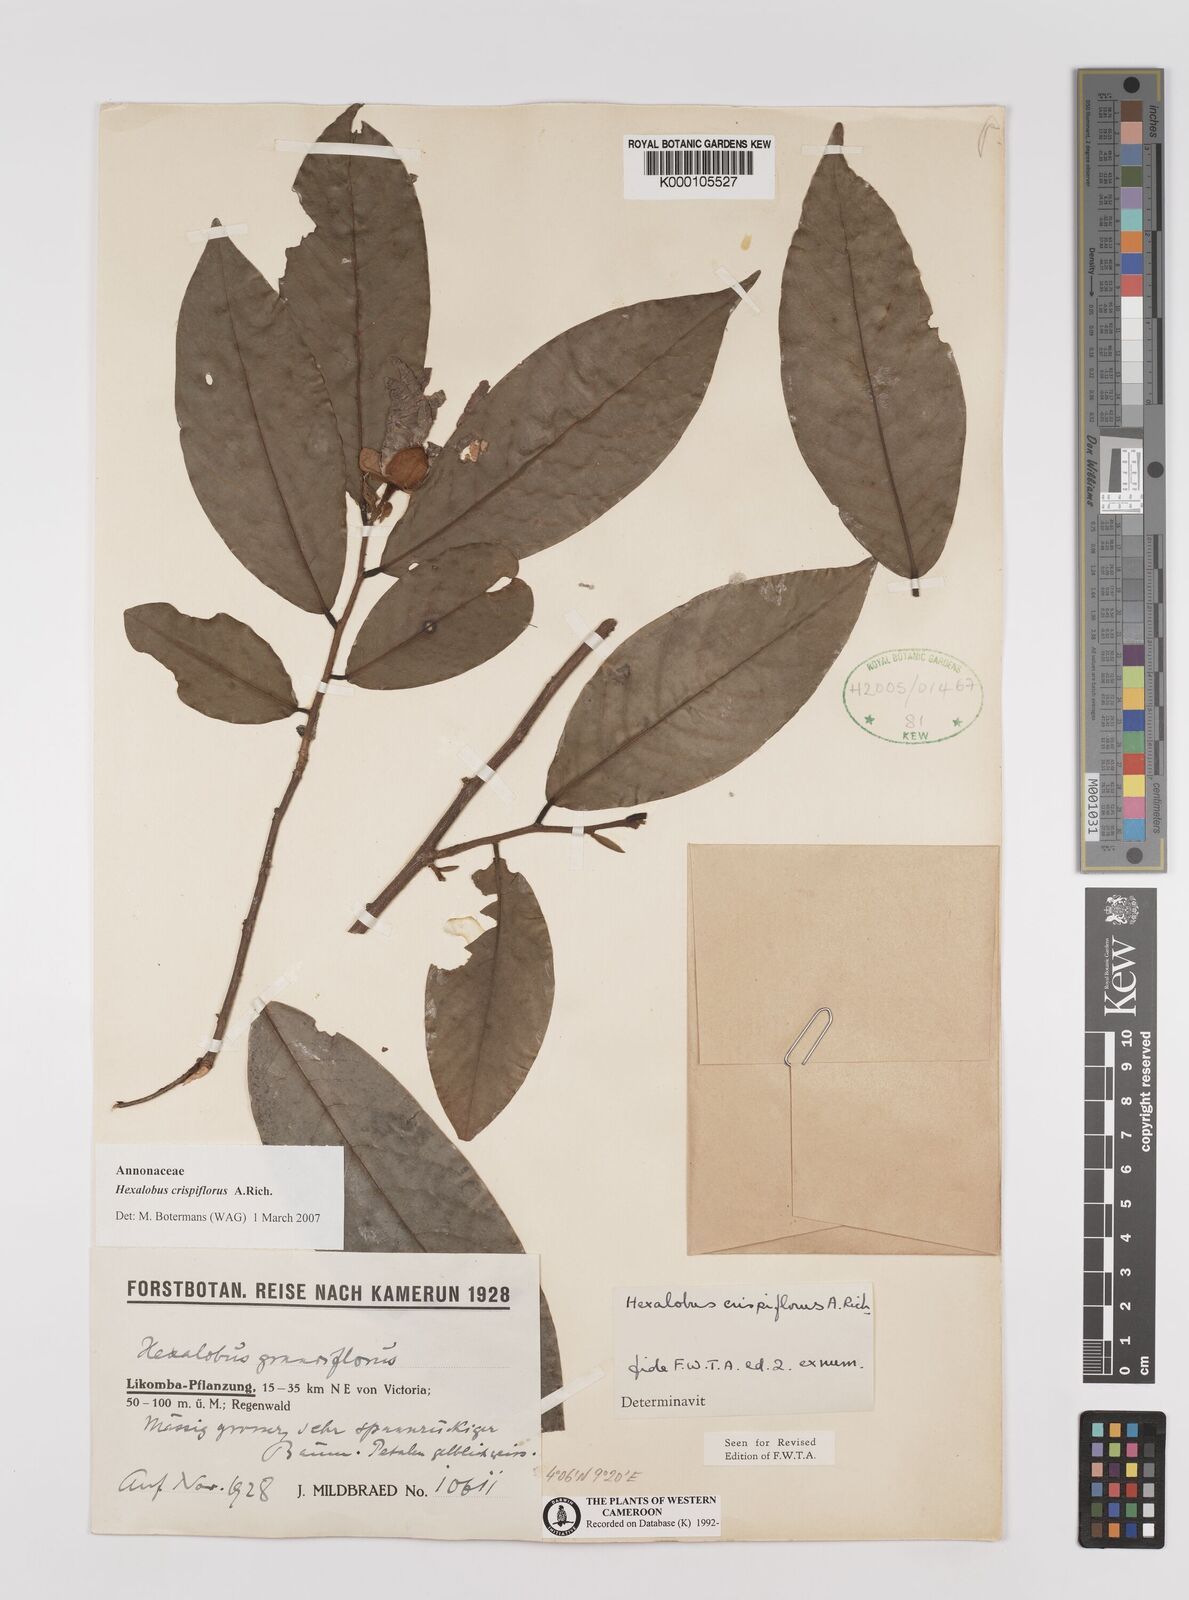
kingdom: Plantae
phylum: Tracheophyta
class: Magnoliopsida
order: Magnoliales
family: Annonaceae
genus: Hexalobus
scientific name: Hexalobus crispiflorus
